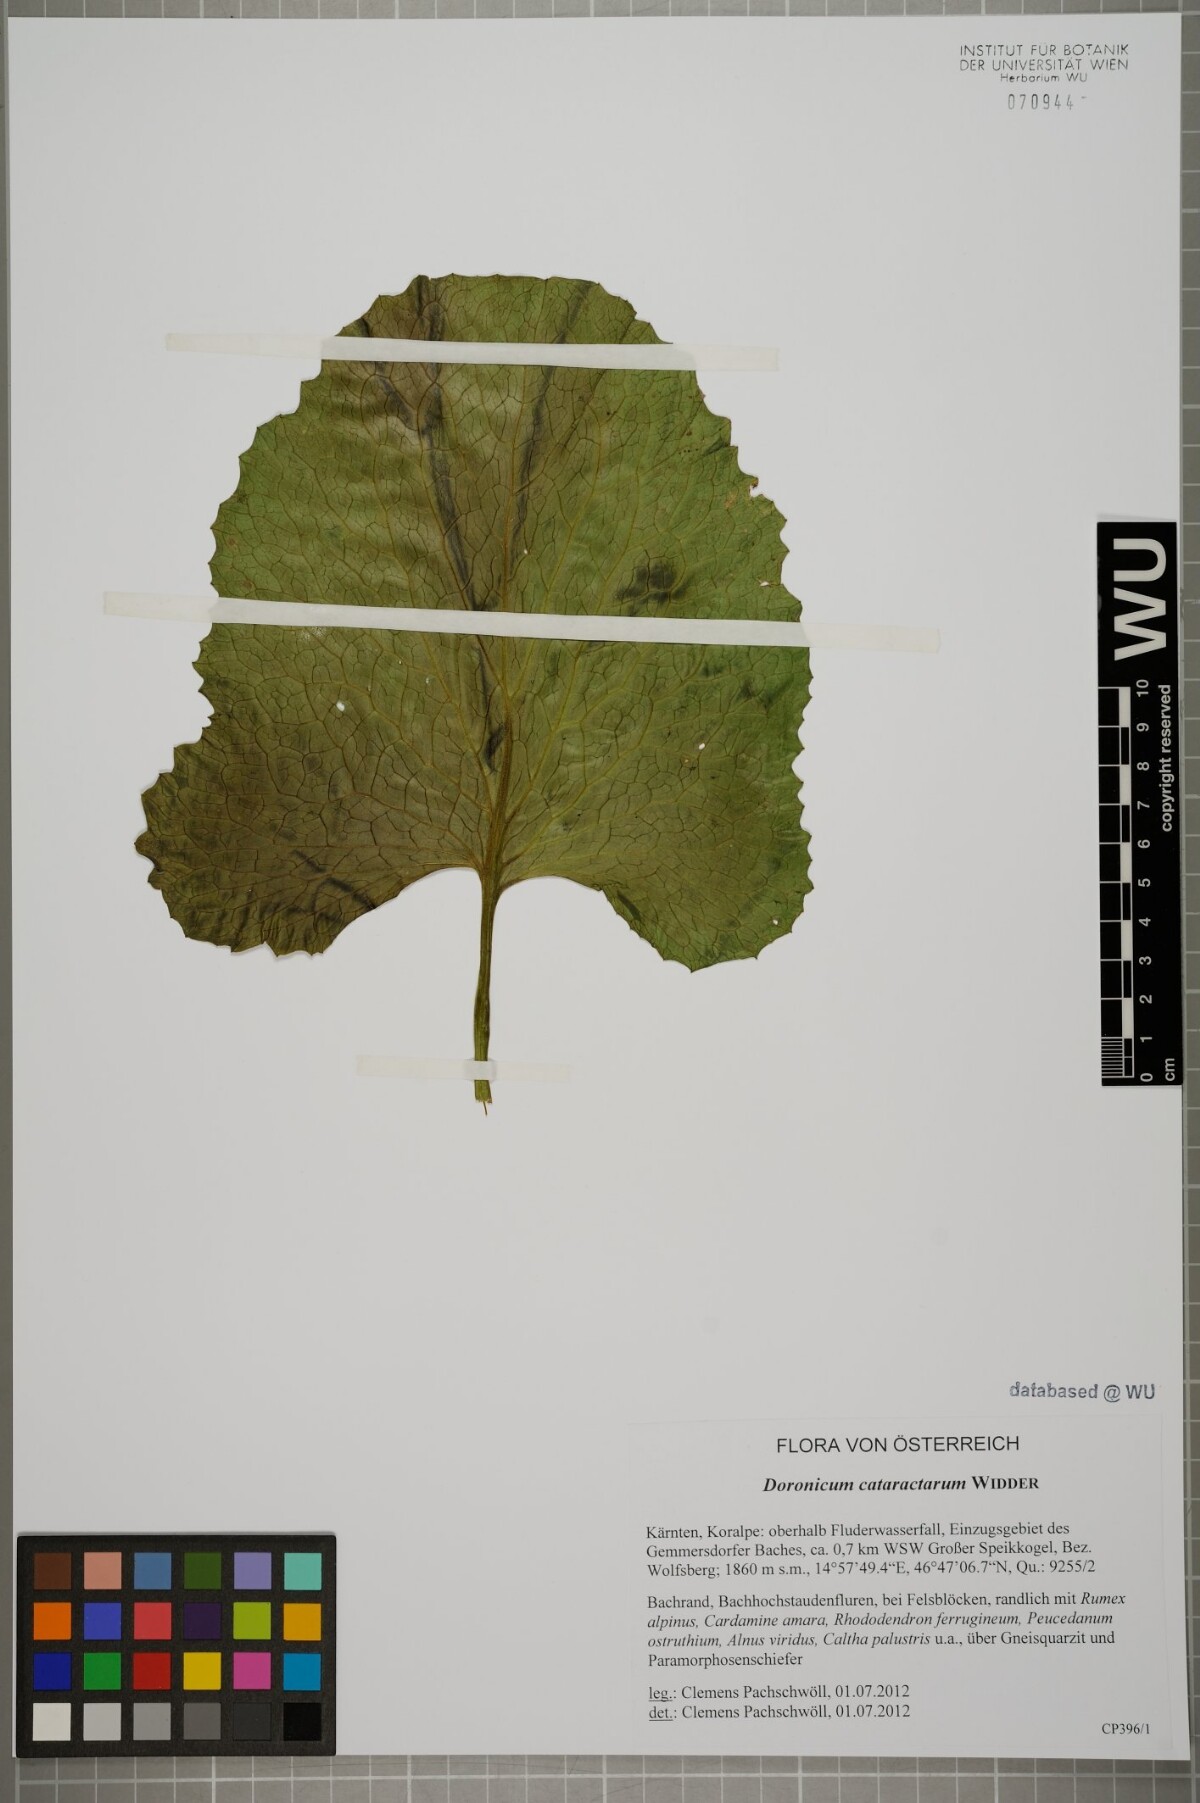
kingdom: Plantae
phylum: Tracheophyta
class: Magnoliopsida
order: Asterales
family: Asteraceae
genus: Doronicum
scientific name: Doronicum cataractarum
